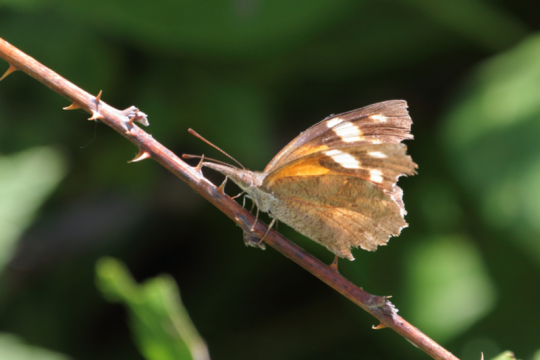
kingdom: Animalia
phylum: Arthropoda
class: Insecta
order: Lepidoptera
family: Nymphalidae
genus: Libytheana
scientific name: Libytheana carinenta
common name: American Snout
